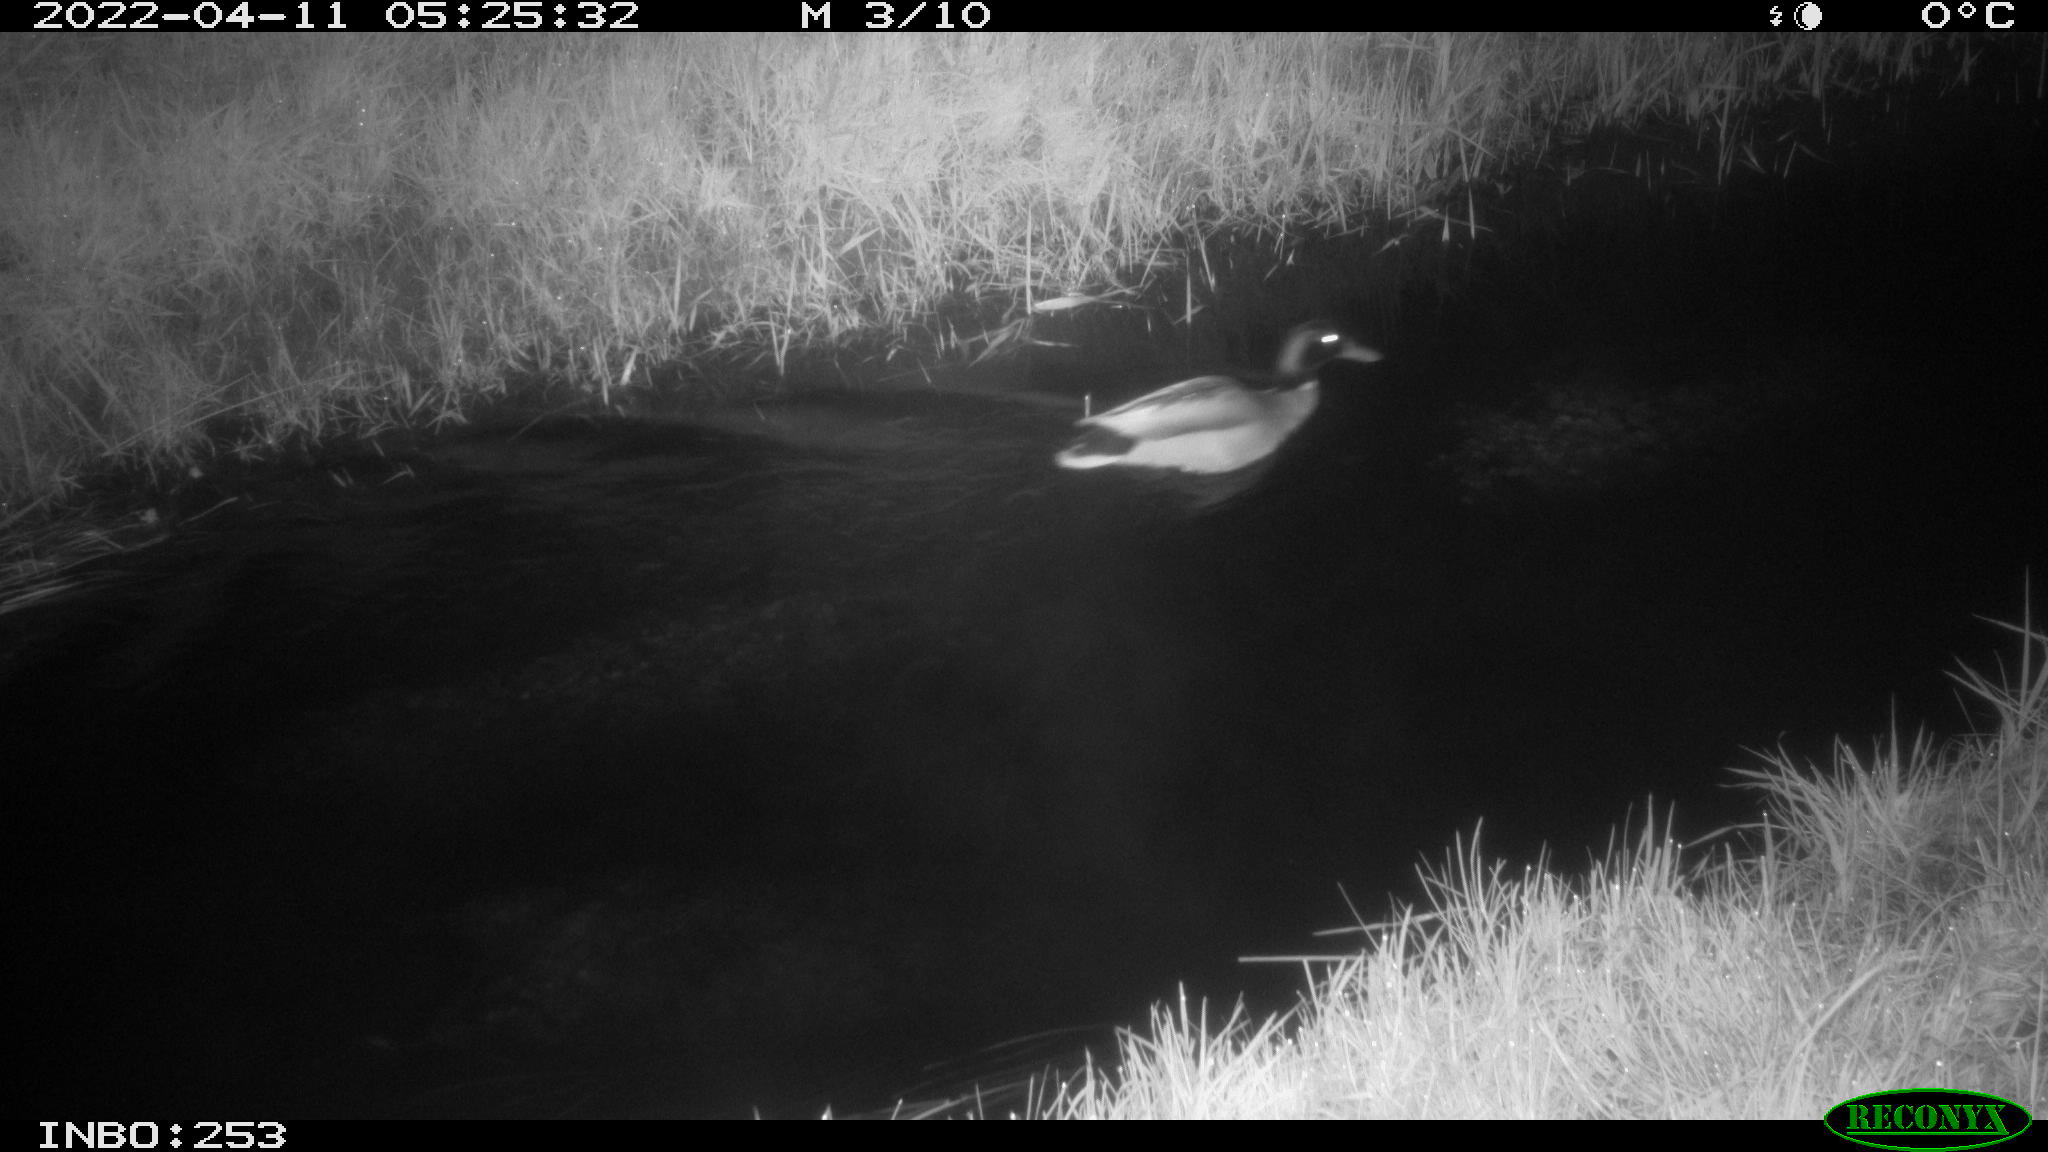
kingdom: Animalia
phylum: Chordata
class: Aves
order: Anseriformes
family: Anatidae
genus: Anas
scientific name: Anas platyrhynchos
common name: Mallard
